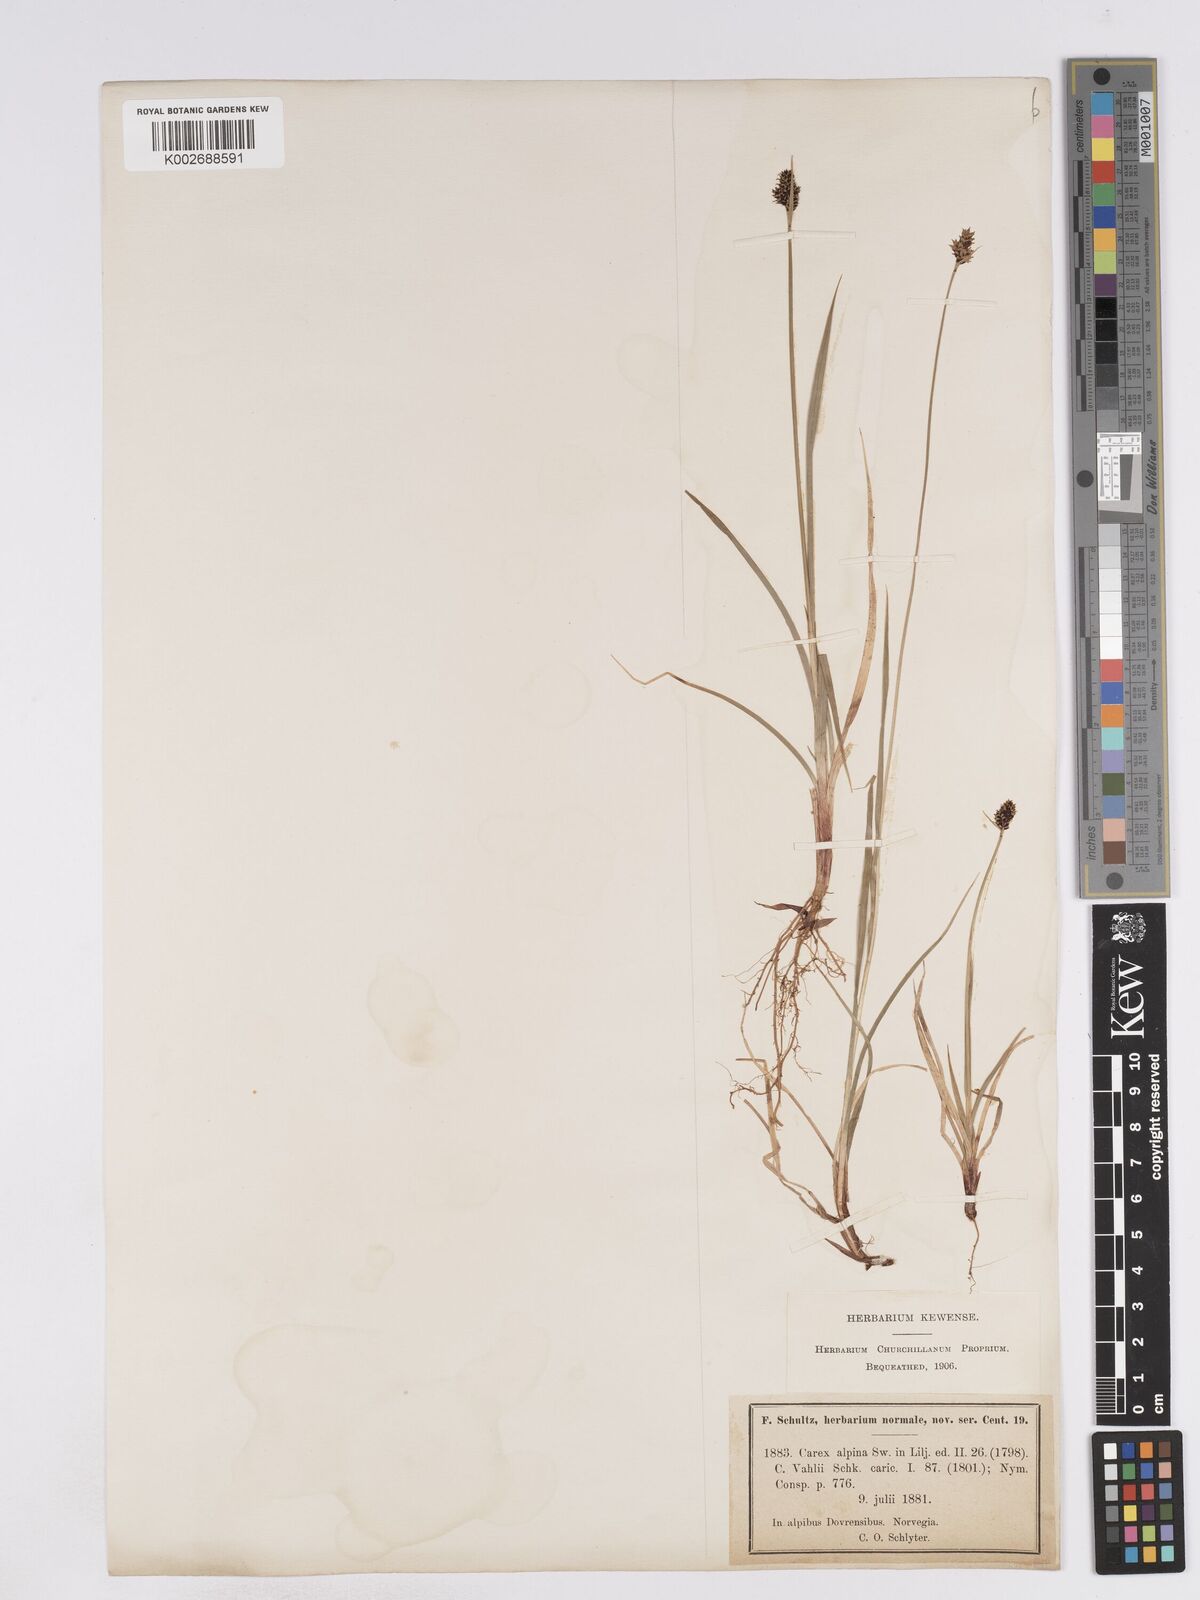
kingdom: Plantae
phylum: Tracheophyta
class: Liliopsida
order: Poales
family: Cyperaceae
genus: Carex
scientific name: Carex norvegica
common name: Close-headed alpine-sedge
